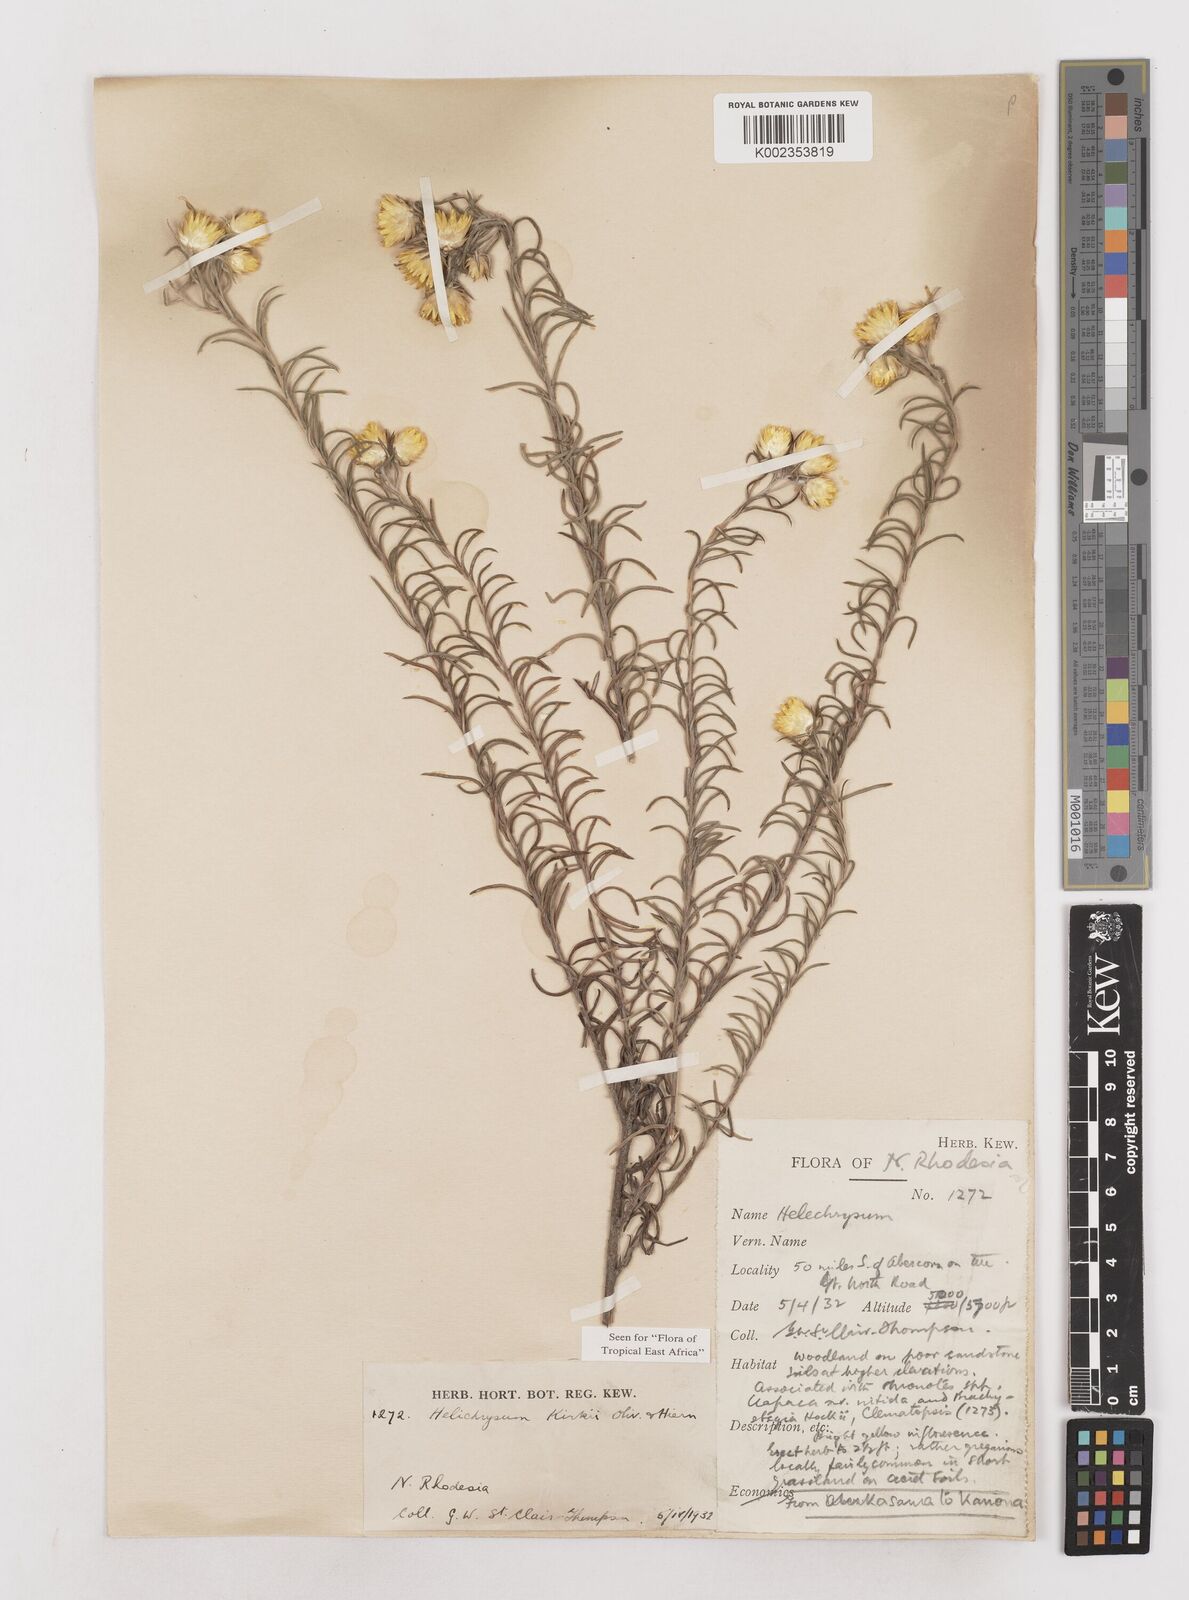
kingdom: Plantae
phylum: Tracheophyta
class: Magnoliopsida
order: Asterales
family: Asteraceae
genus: Helichrysum
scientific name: Helichrysum kirkii
